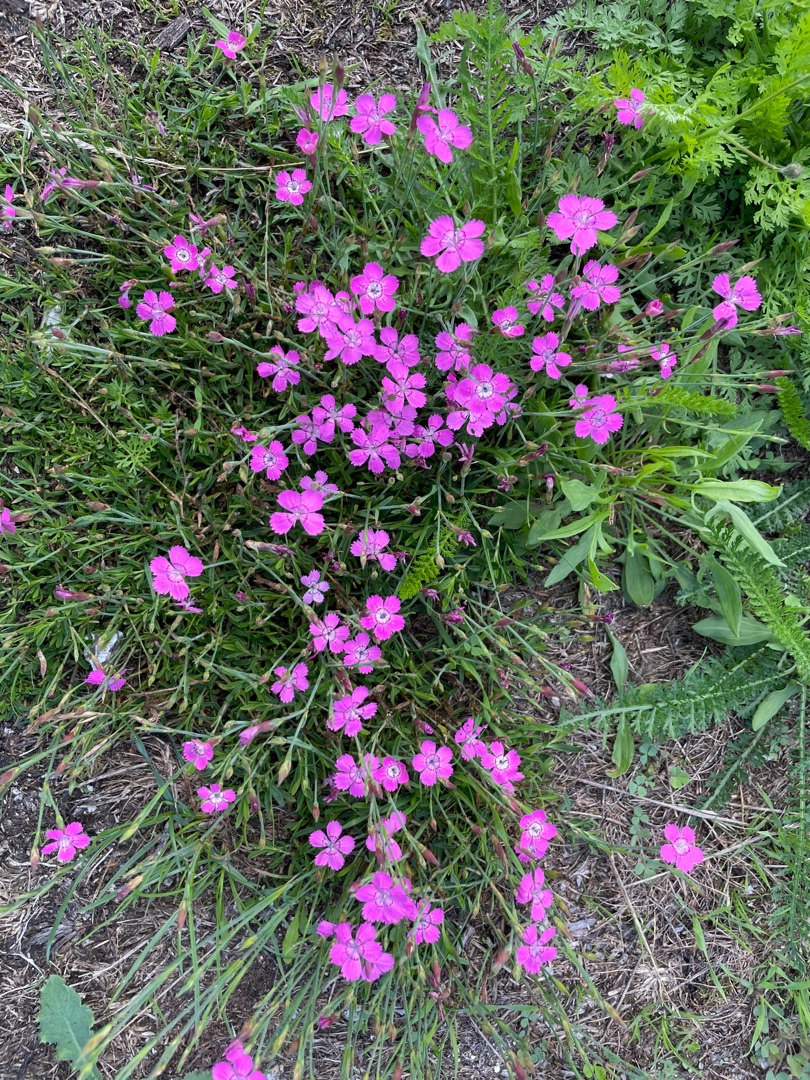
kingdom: Plantae
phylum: Tracheophyta
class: Magnoliopsida
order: Caryophyllales
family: Caryophyllaceae
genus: Dianthus
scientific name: Dianthus deltoides
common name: Bakke-nellike
